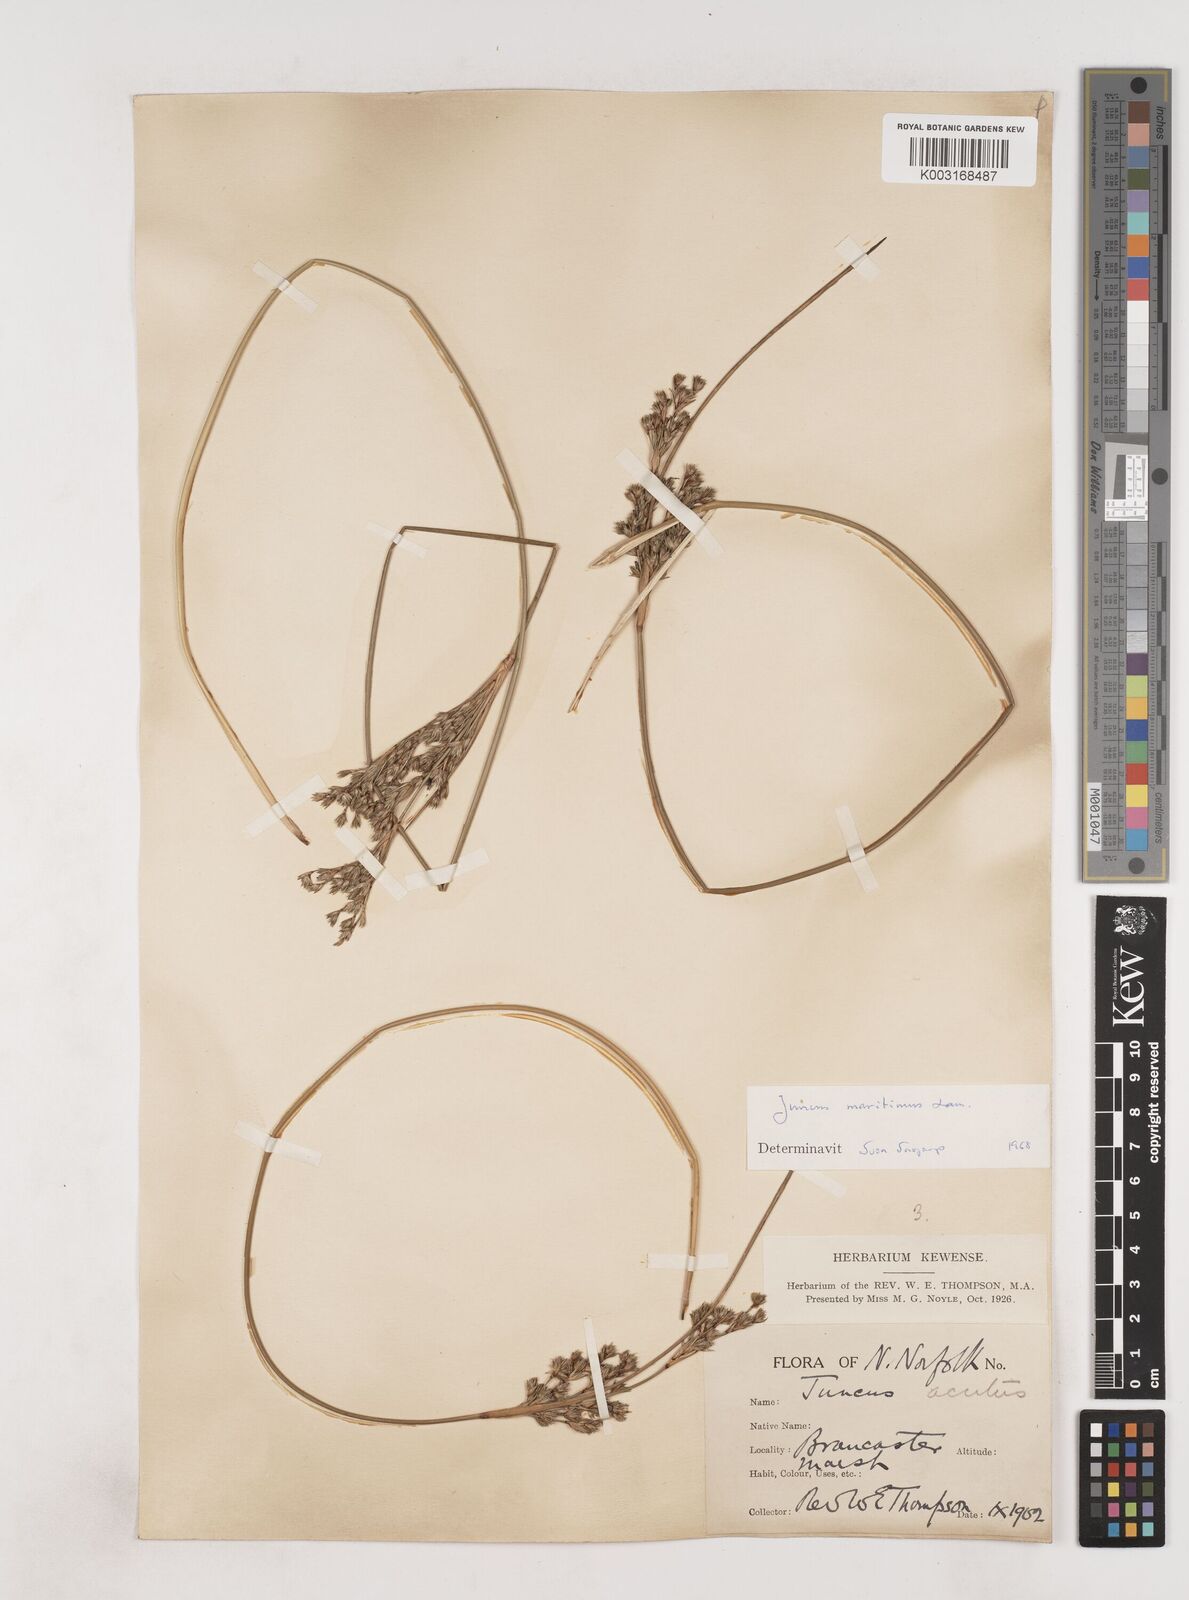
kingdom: Plantae
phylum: Tracheophyta
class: Liliopsida
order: Poales
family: Juncaceae
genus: Juncus
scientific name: Juncus maritimus
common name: Sea rush
